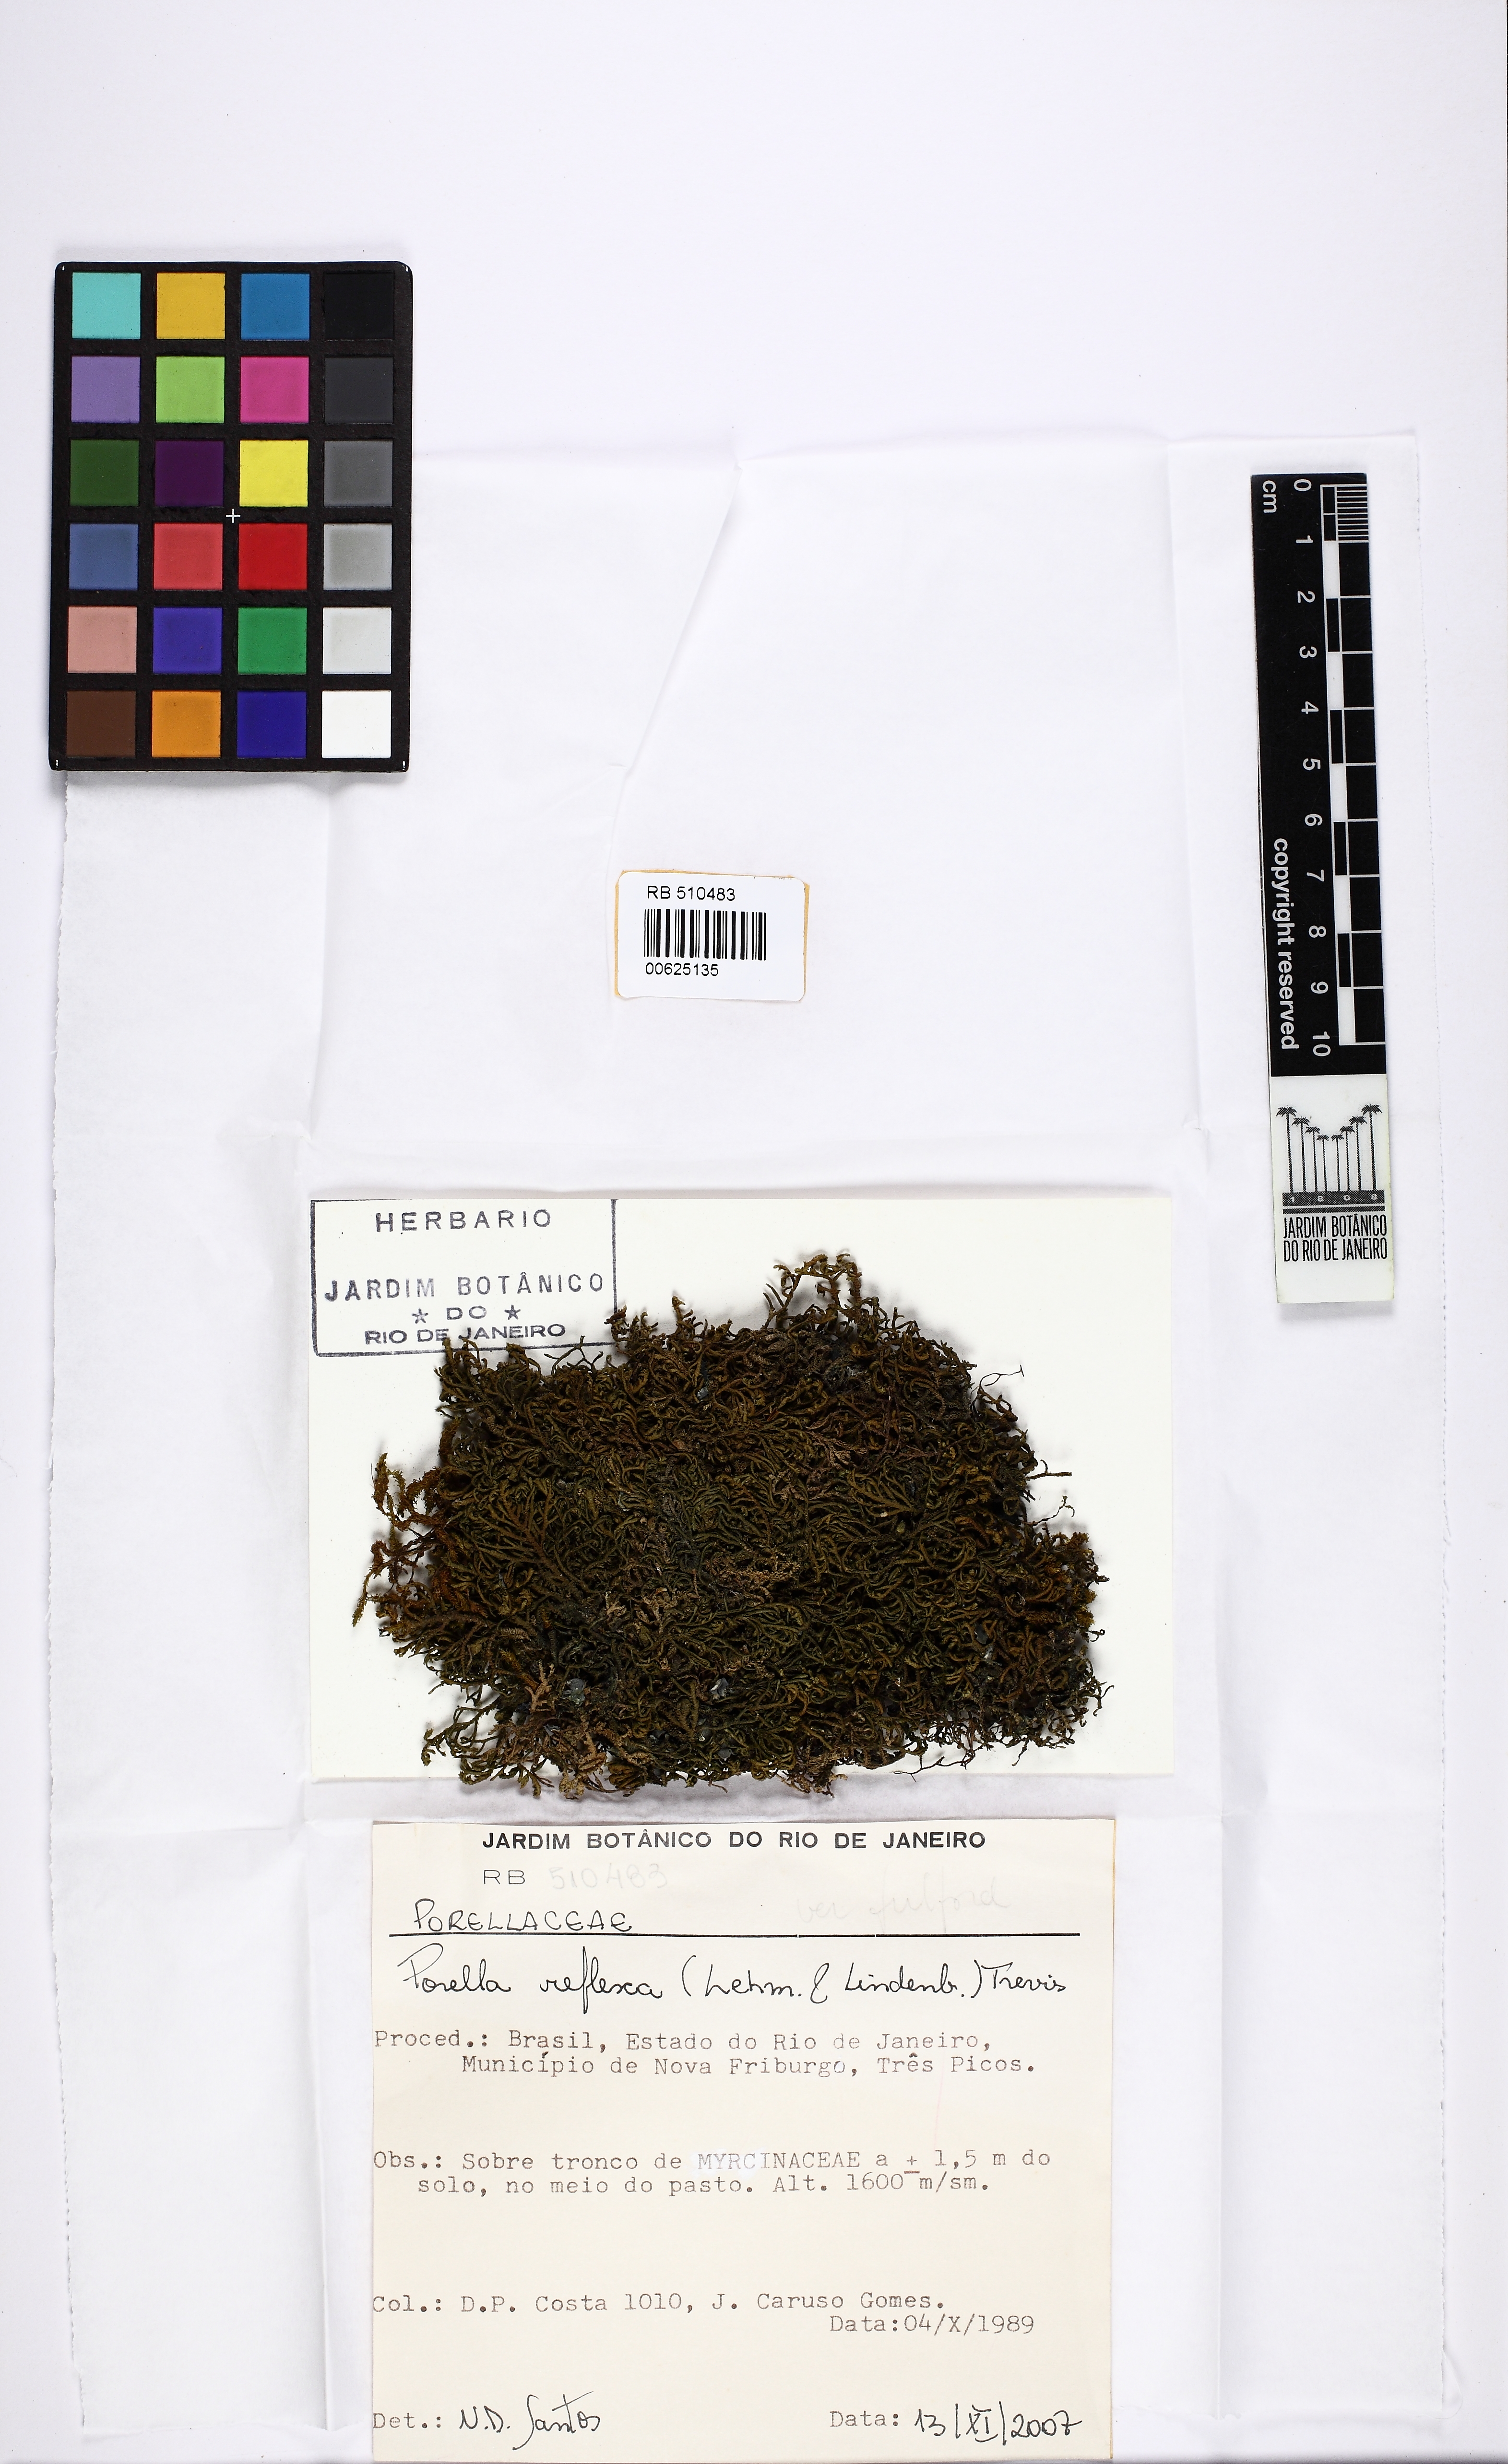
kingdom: Plantae
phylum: Marchantiophyta
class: Jungermanniopsida
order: Porellales
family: Porellaceae
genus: Porella
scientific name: Porella reflexa
